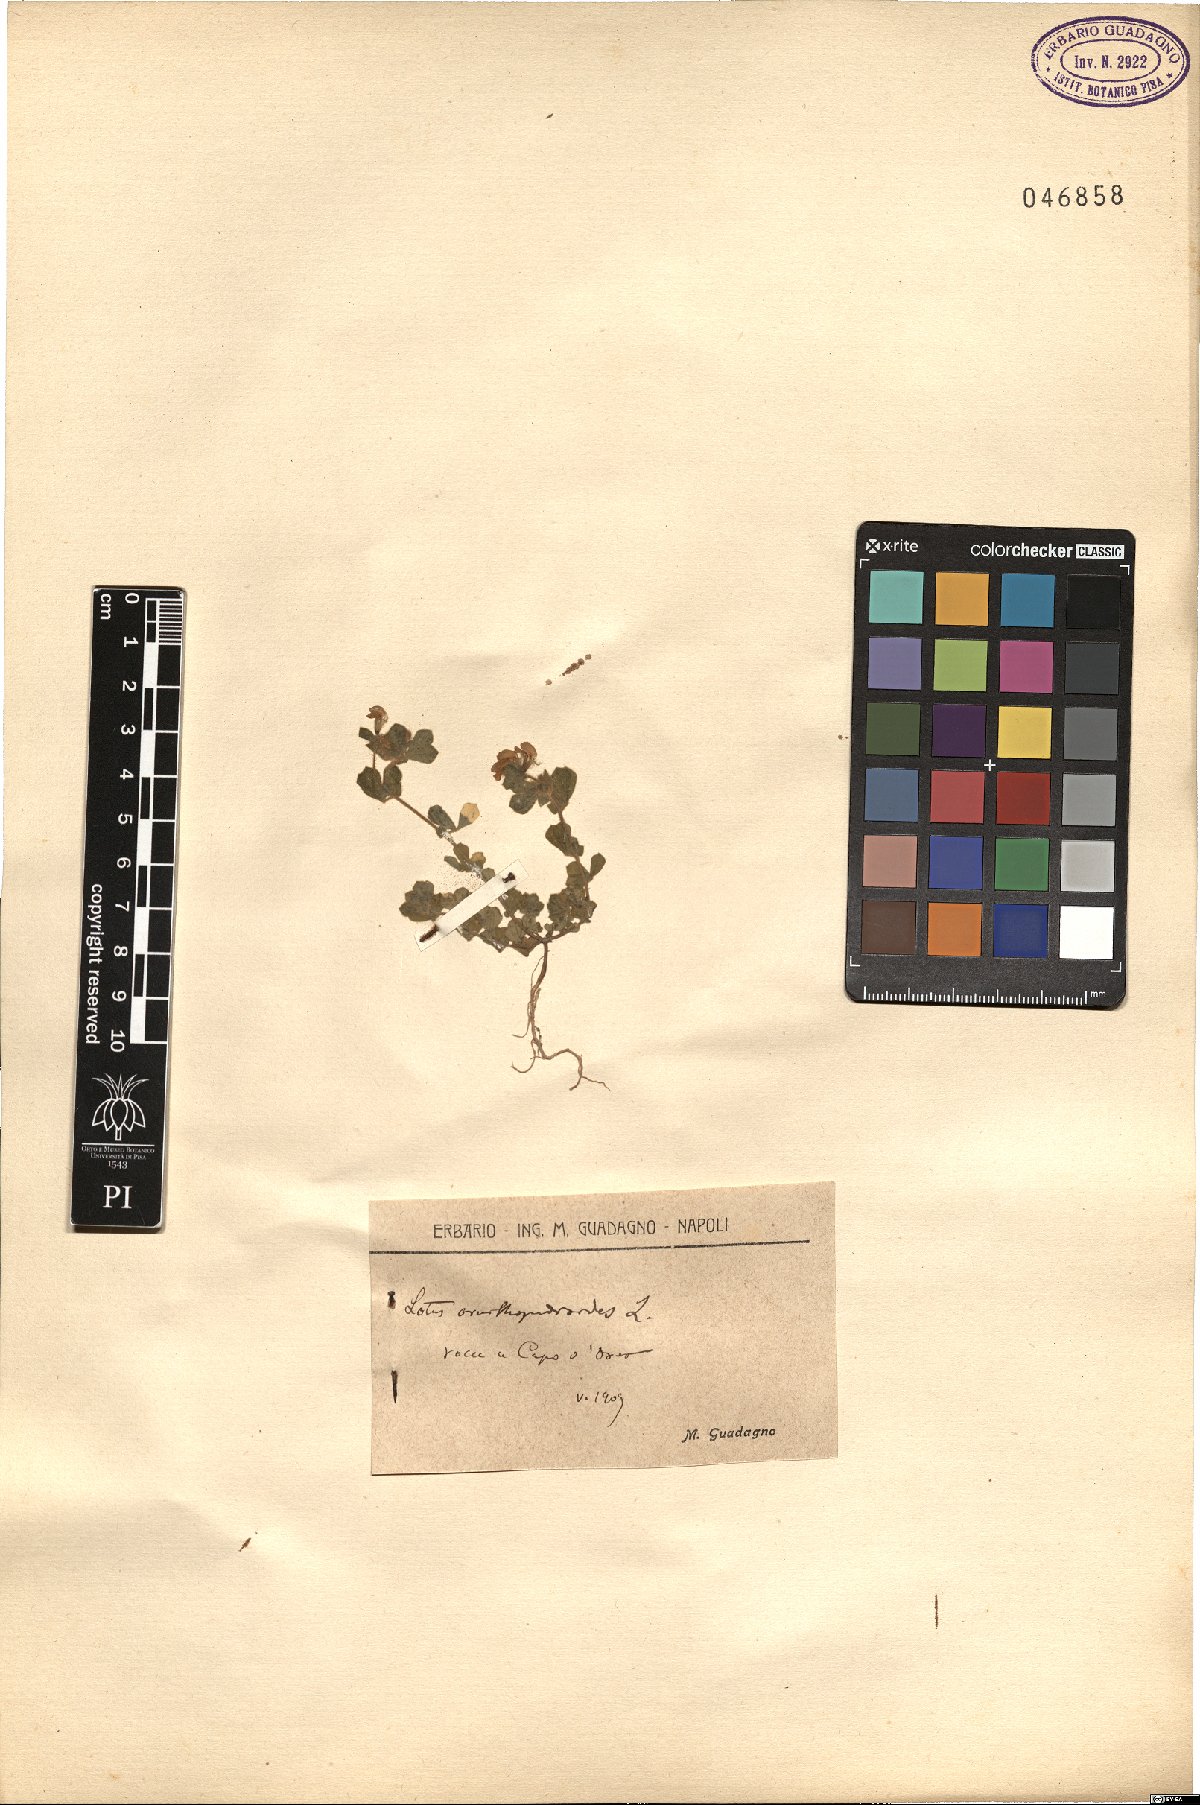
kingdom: Plantae
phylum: Tracheophyta
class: Magnoliopsida
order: Fabales
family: Fabaceae
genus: Lotus
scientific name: Lotus ornithopodioides
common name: Southern bird's-foot trefoil
